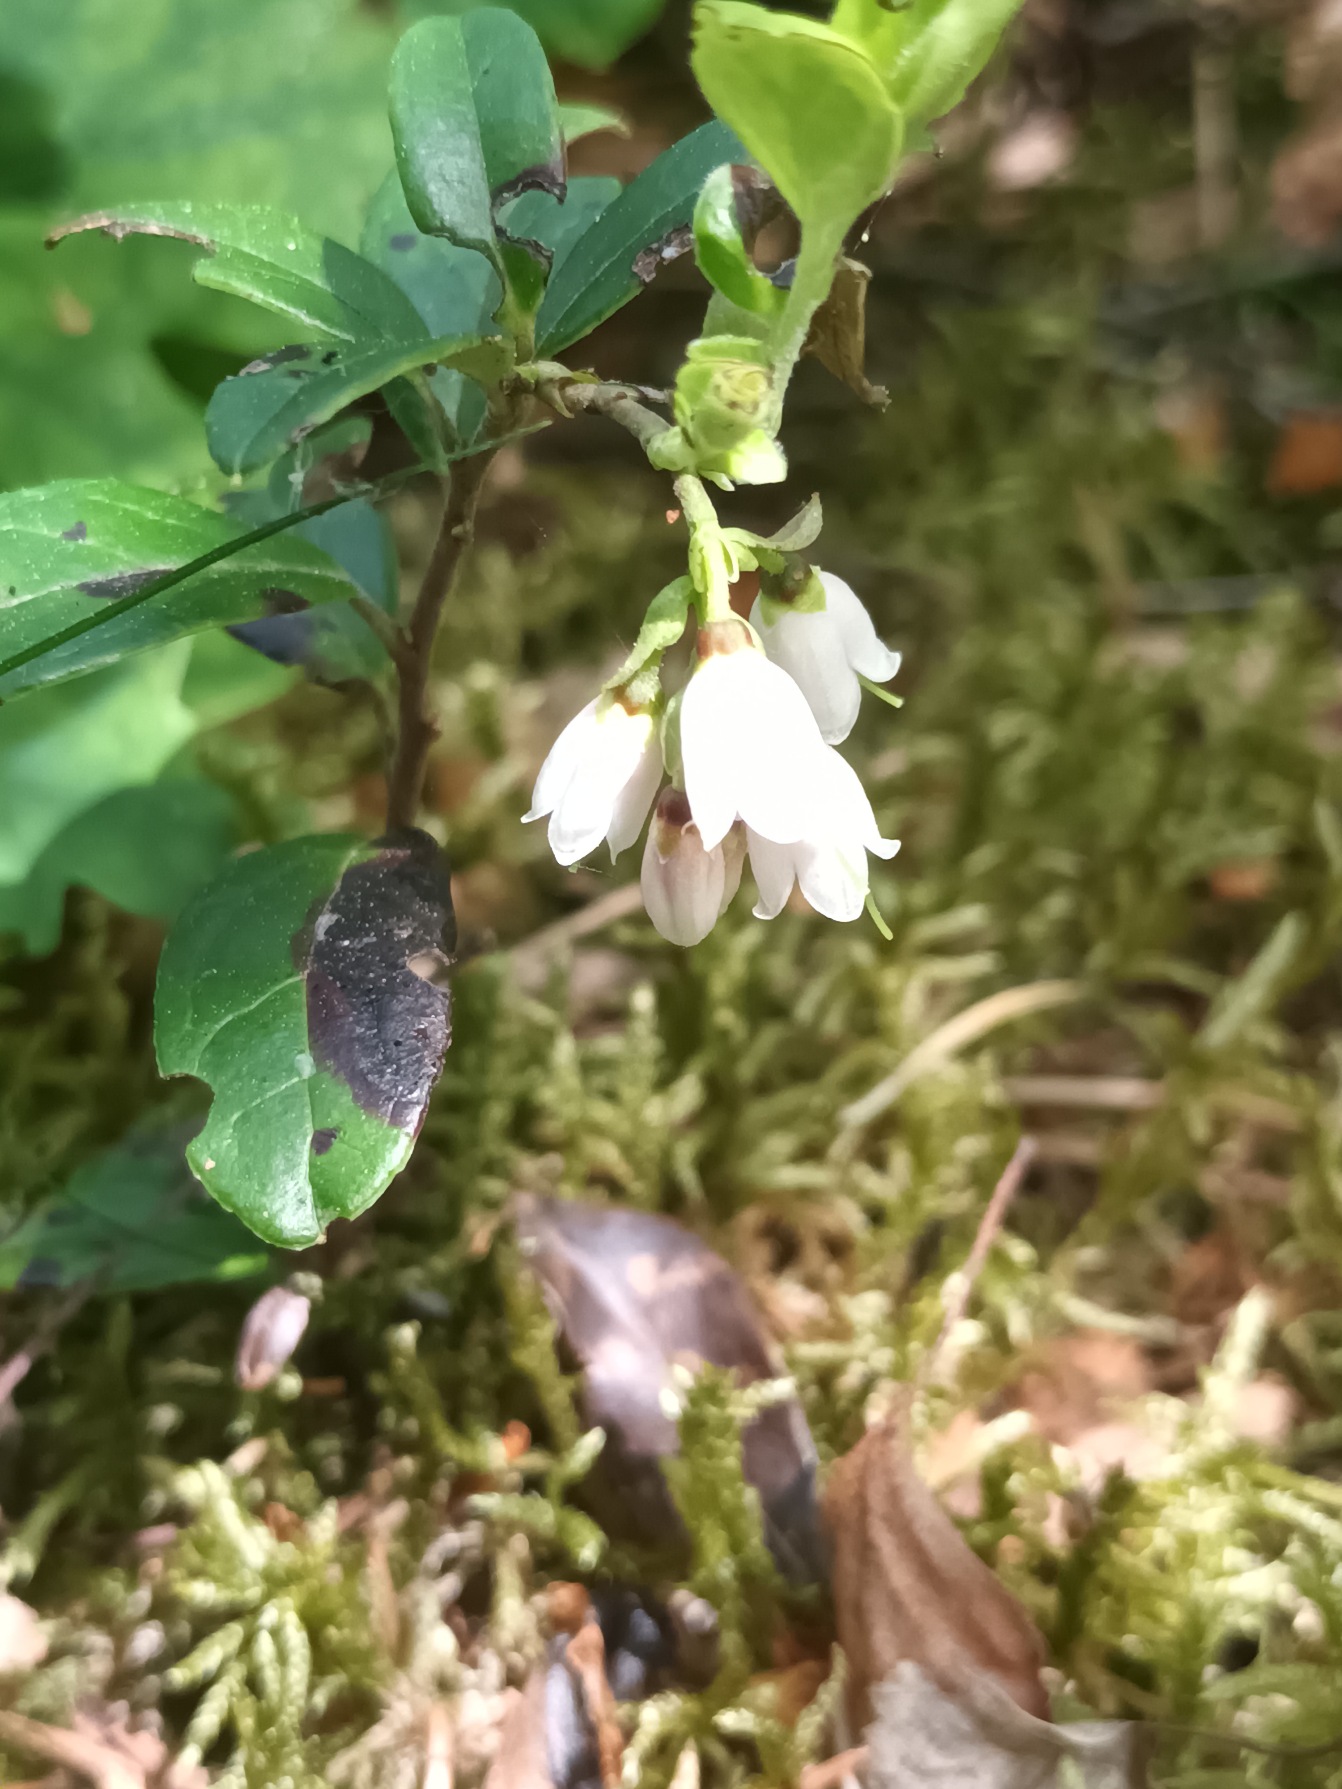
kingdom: Plantae
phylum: Tracheophyta
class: Magnoliopsida
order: Ericales
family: Ericaceae
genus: Vaccinium
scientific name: Vaccinium vitis-idaea
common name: Tyttebær
